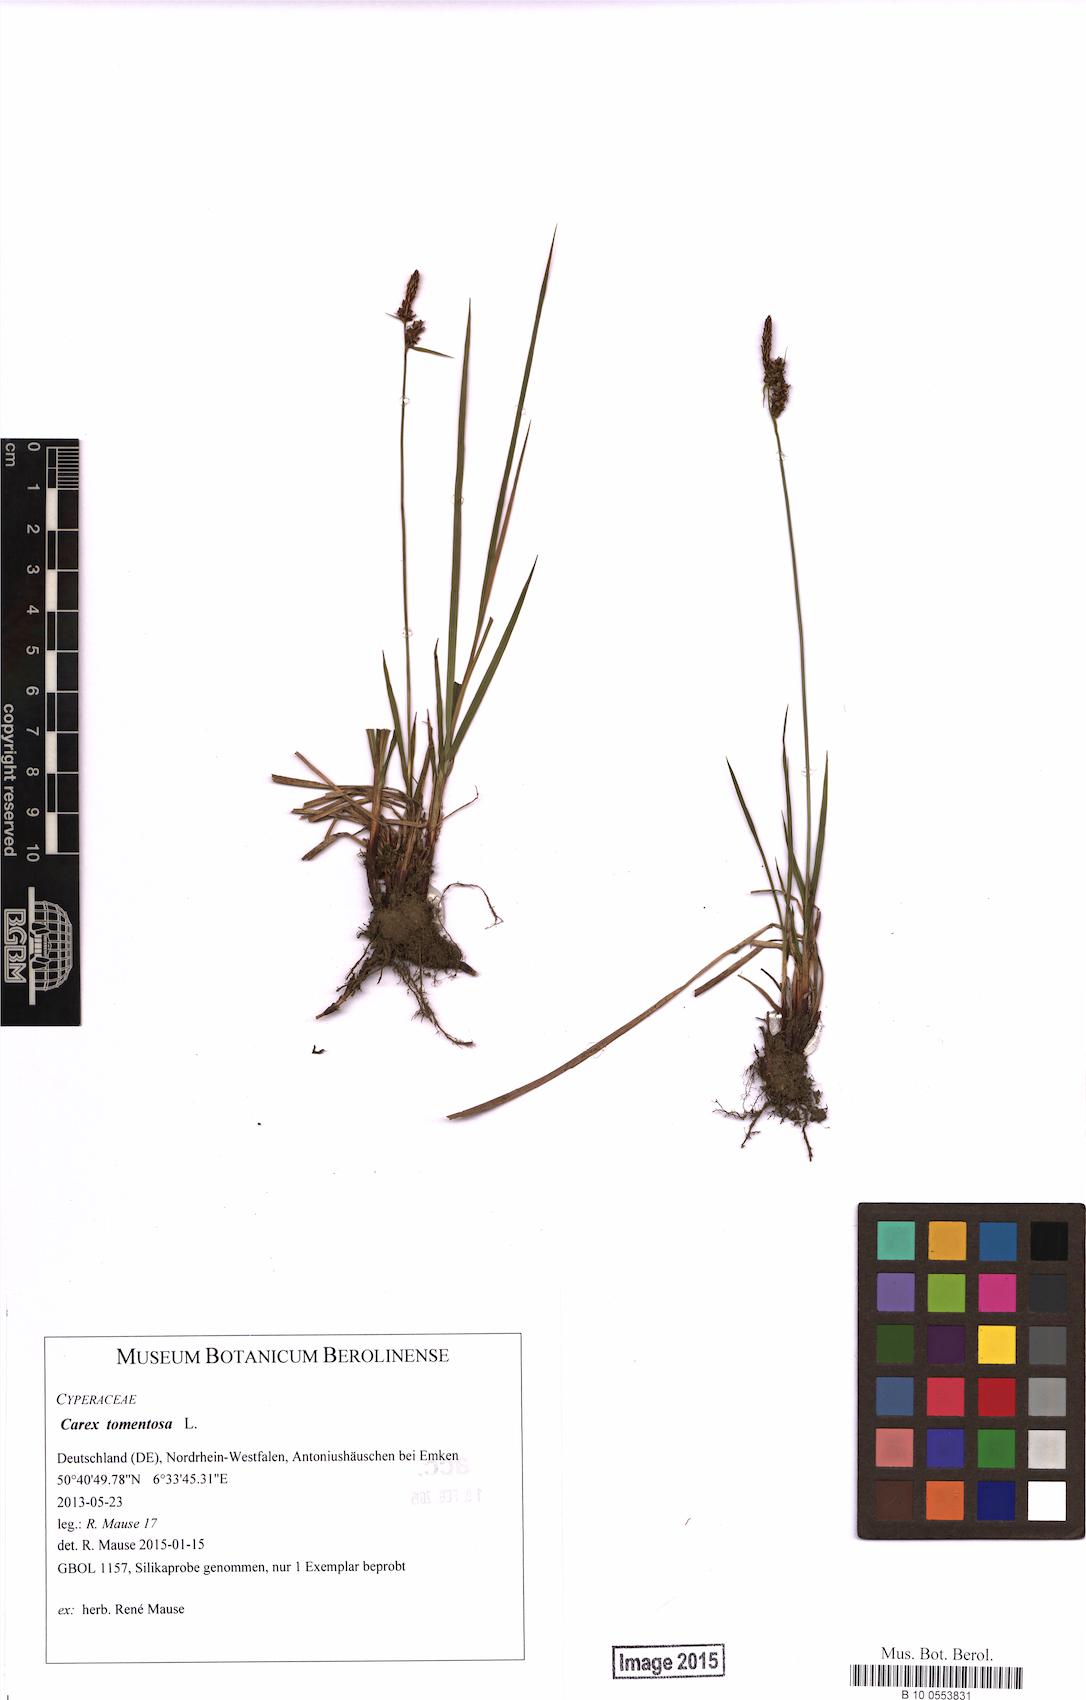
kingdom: Plantae
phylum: Tracheophyta
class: Liliopsida
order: Poales
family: Cyperaceae
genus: Carex
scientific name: Carex tomentosa
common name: Downy-fruited sedge
